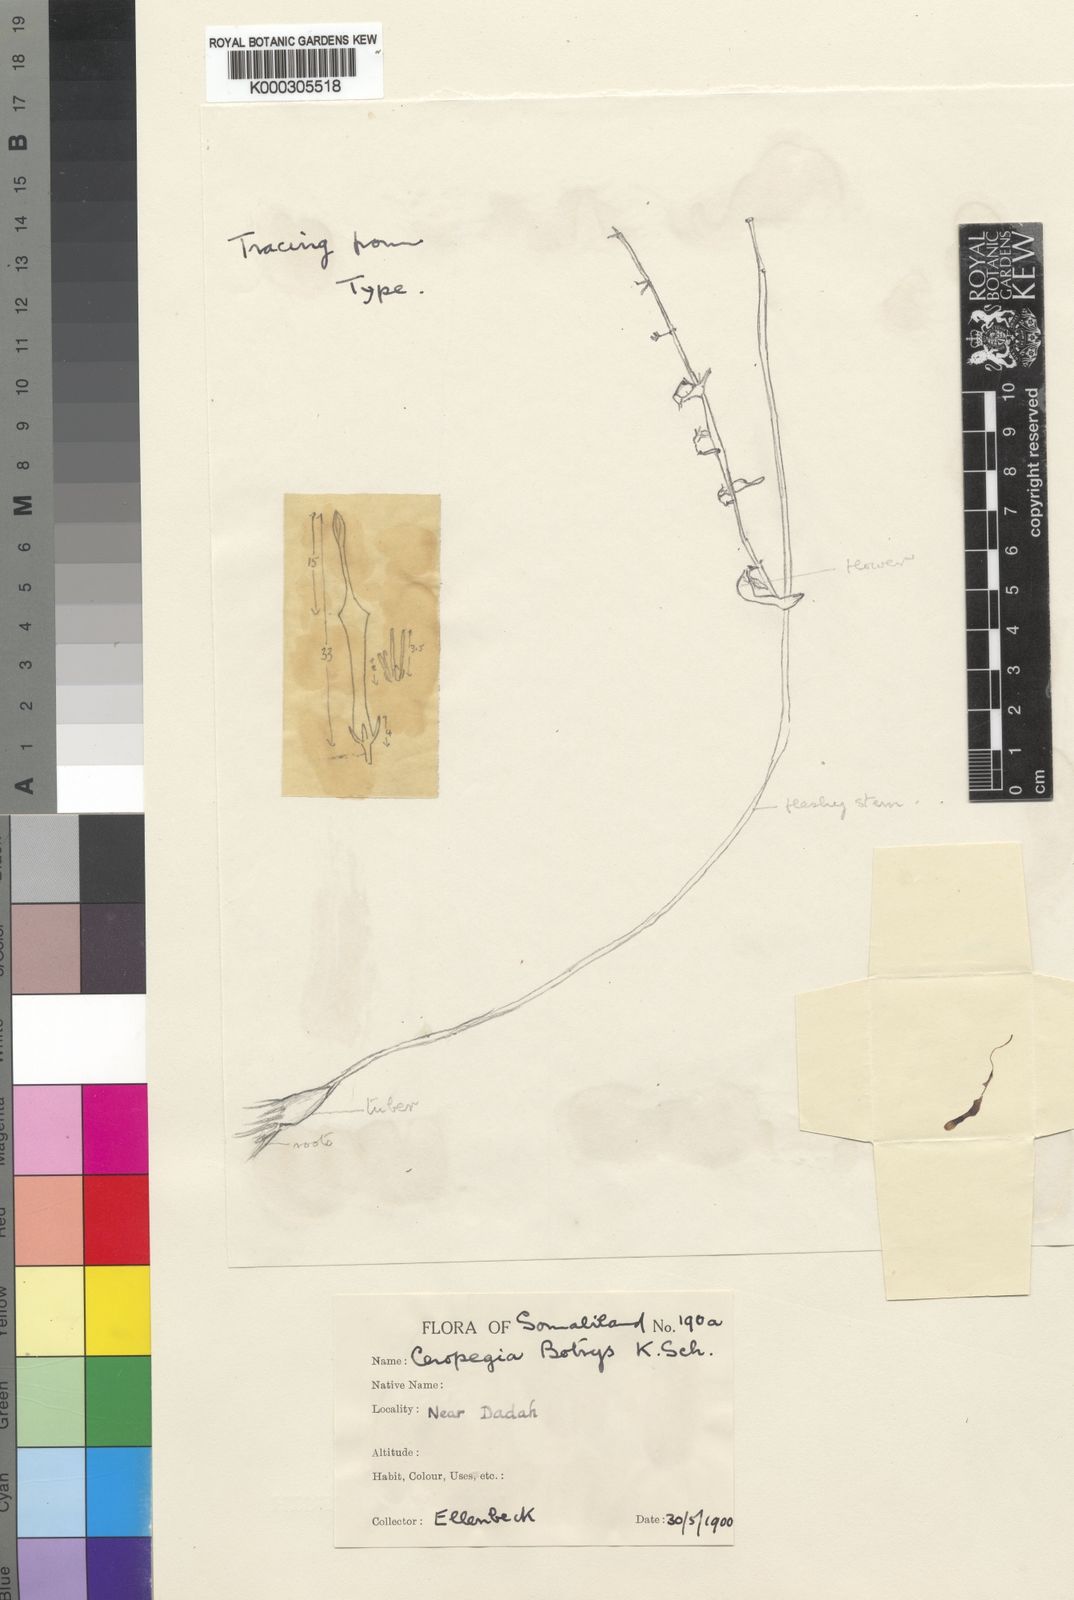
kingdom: Plantae
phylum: Tracheophyta
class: Magnoliopsida
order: Gentianales
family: Apocynaceae
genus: Ceropegia
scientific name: Ceropegia subaphylla
